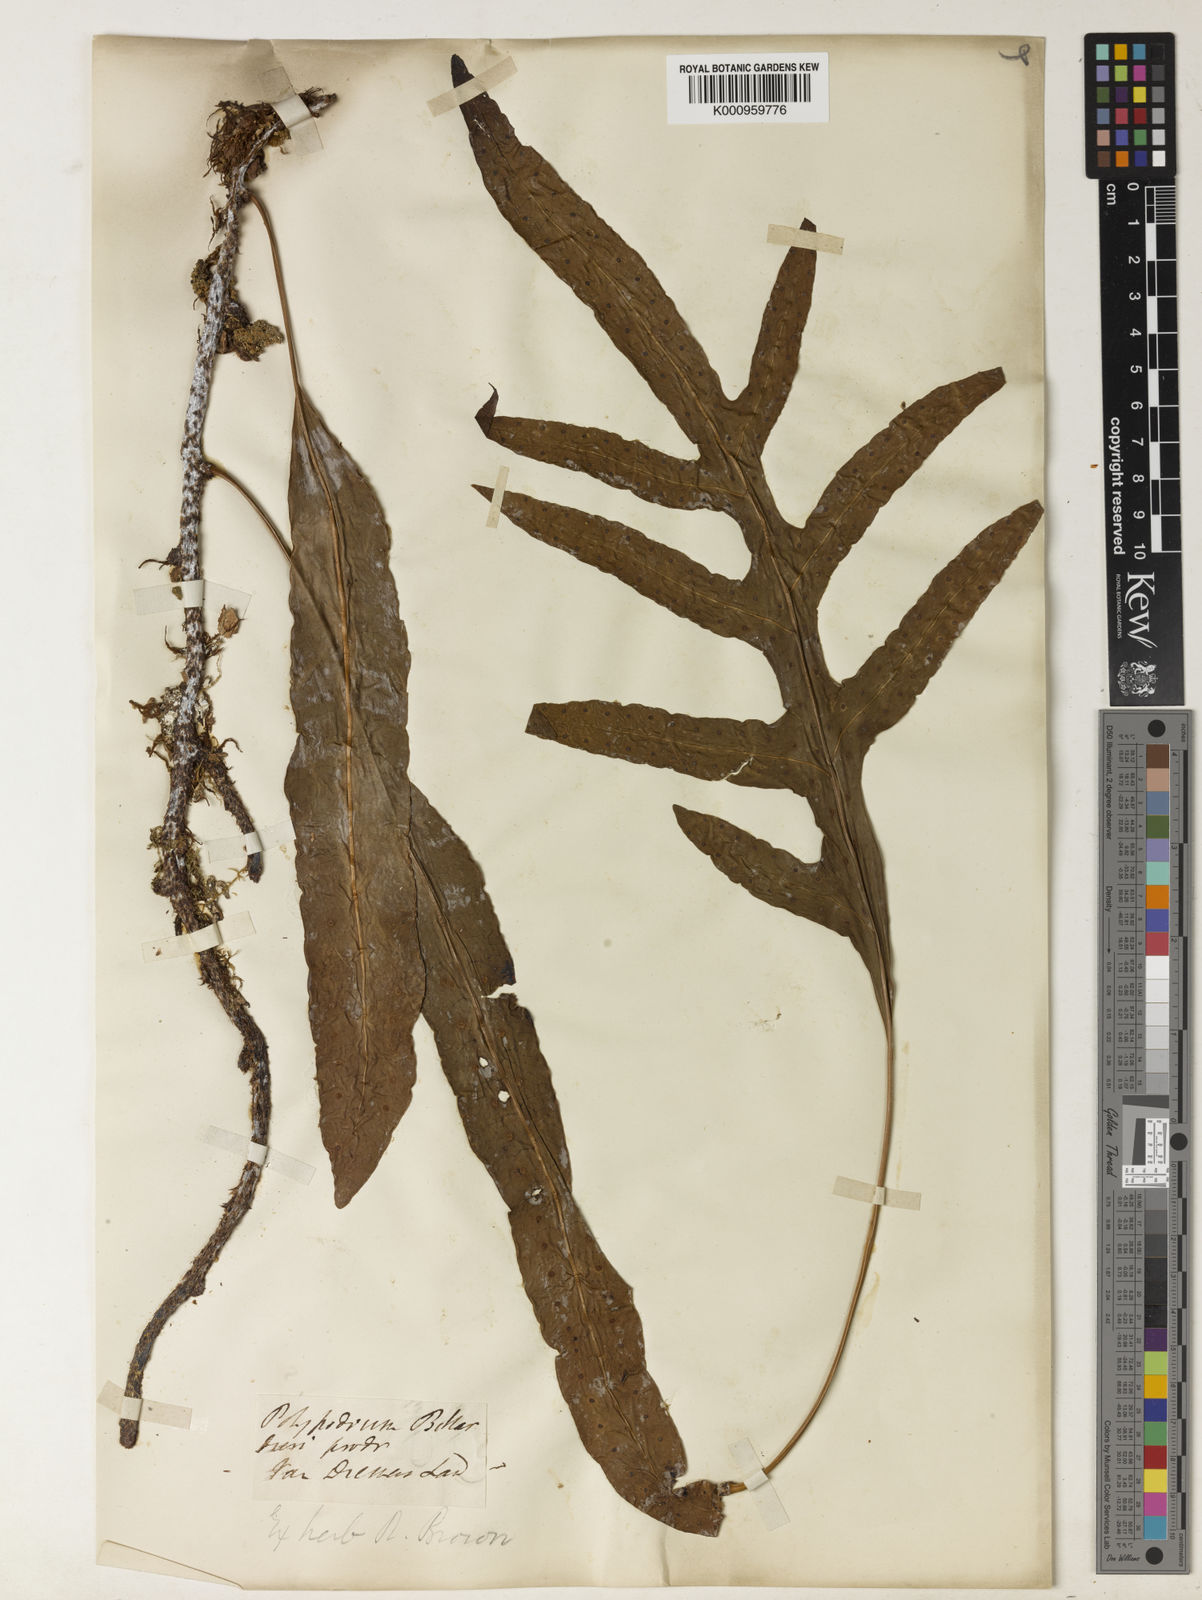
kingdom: Plantae
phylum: Tracheophyta
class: Polypodiopsida
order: Polypodiales
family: Polypodiaceae
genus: Drynaria
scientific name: Drynaria rigidula
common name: Basket fern
